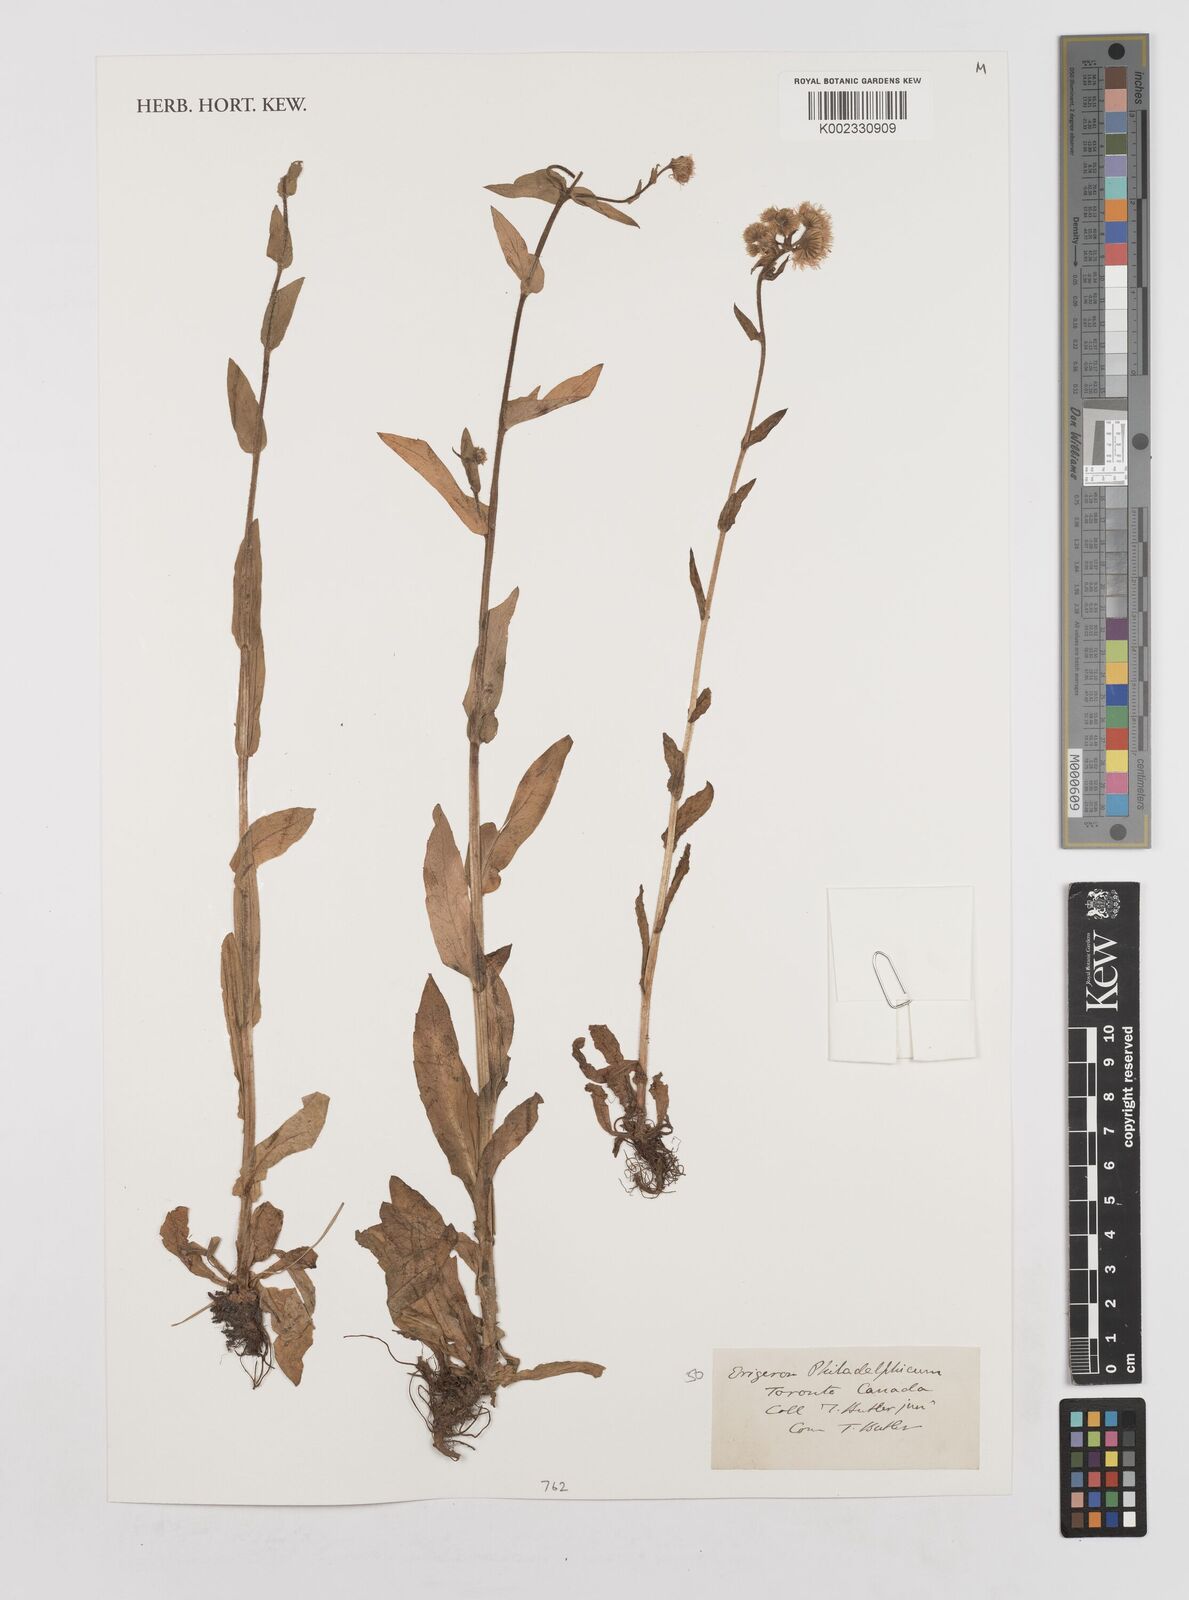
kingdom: Plantae
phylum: Tracheophyta
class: Magnoliopsida
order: Asterales
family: Asteraceae
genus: Erigeron
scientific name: Erigeron philadelphicus
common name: Robin's-plantain
